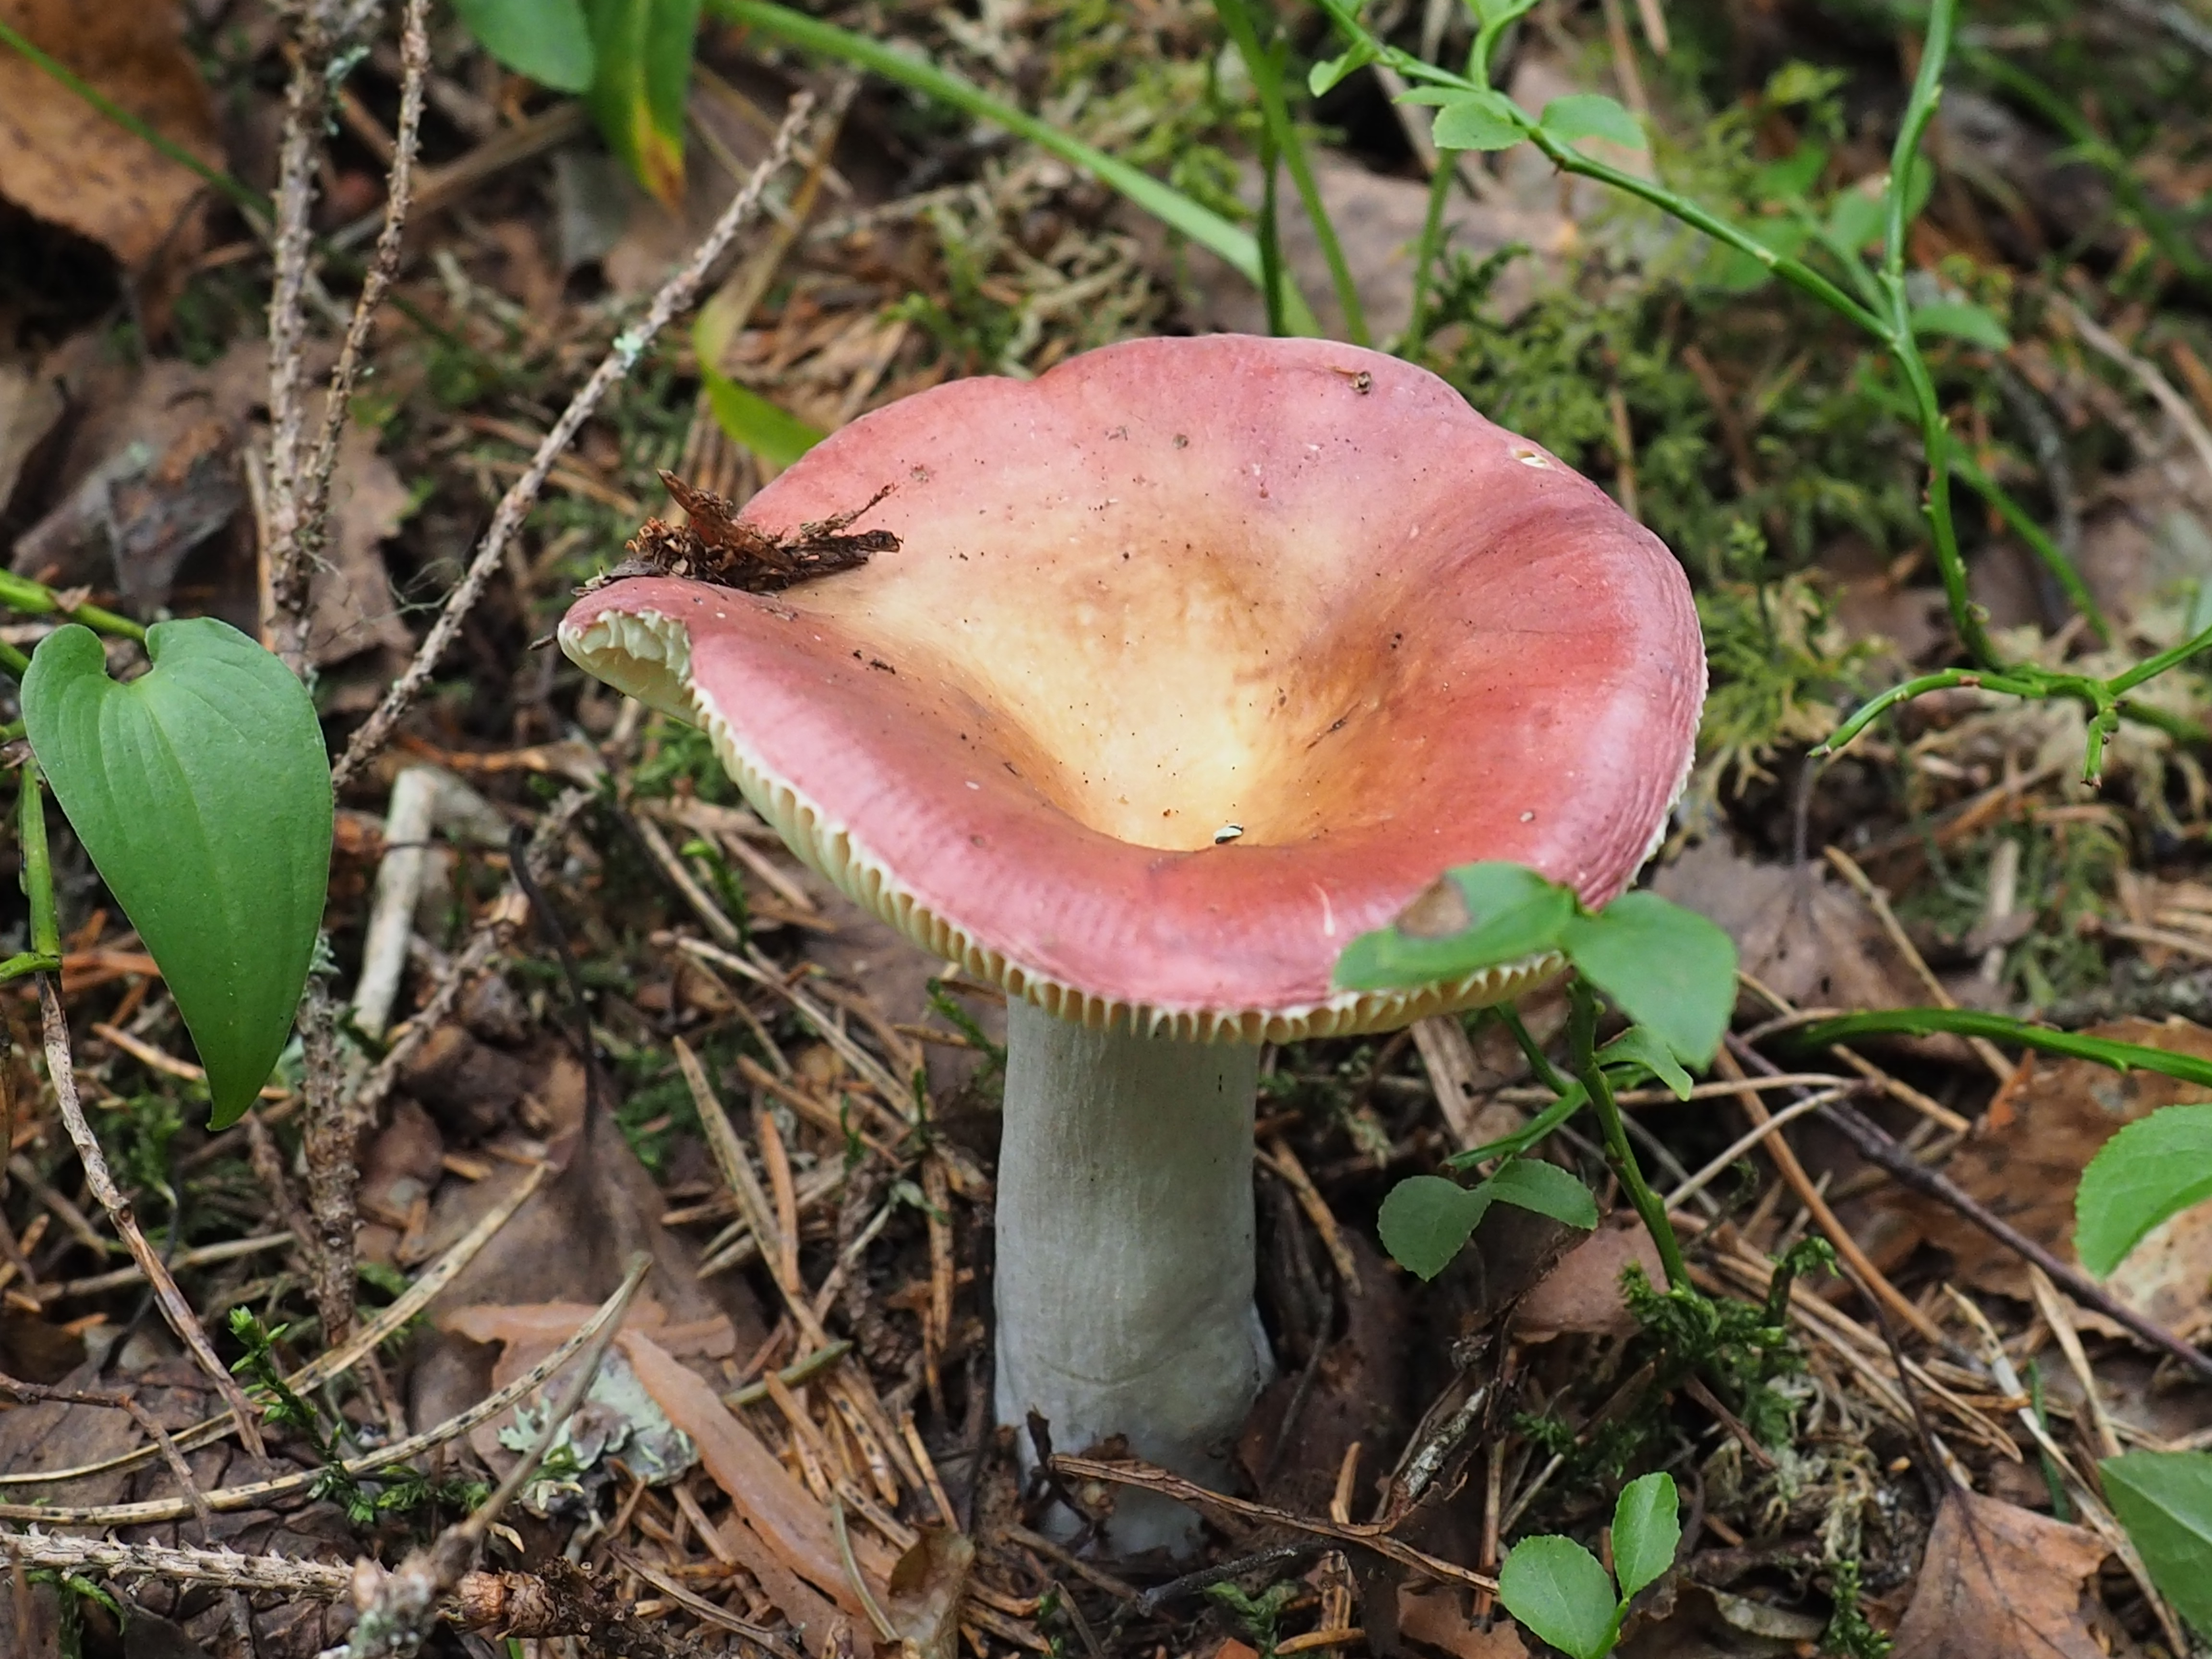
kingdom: Fungi
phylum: Basidiomycota
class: Agaricomycetes
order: Russulales
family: Russulaceae
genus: Russula
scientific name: Russula vinosa
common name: Darkening brittlegill
